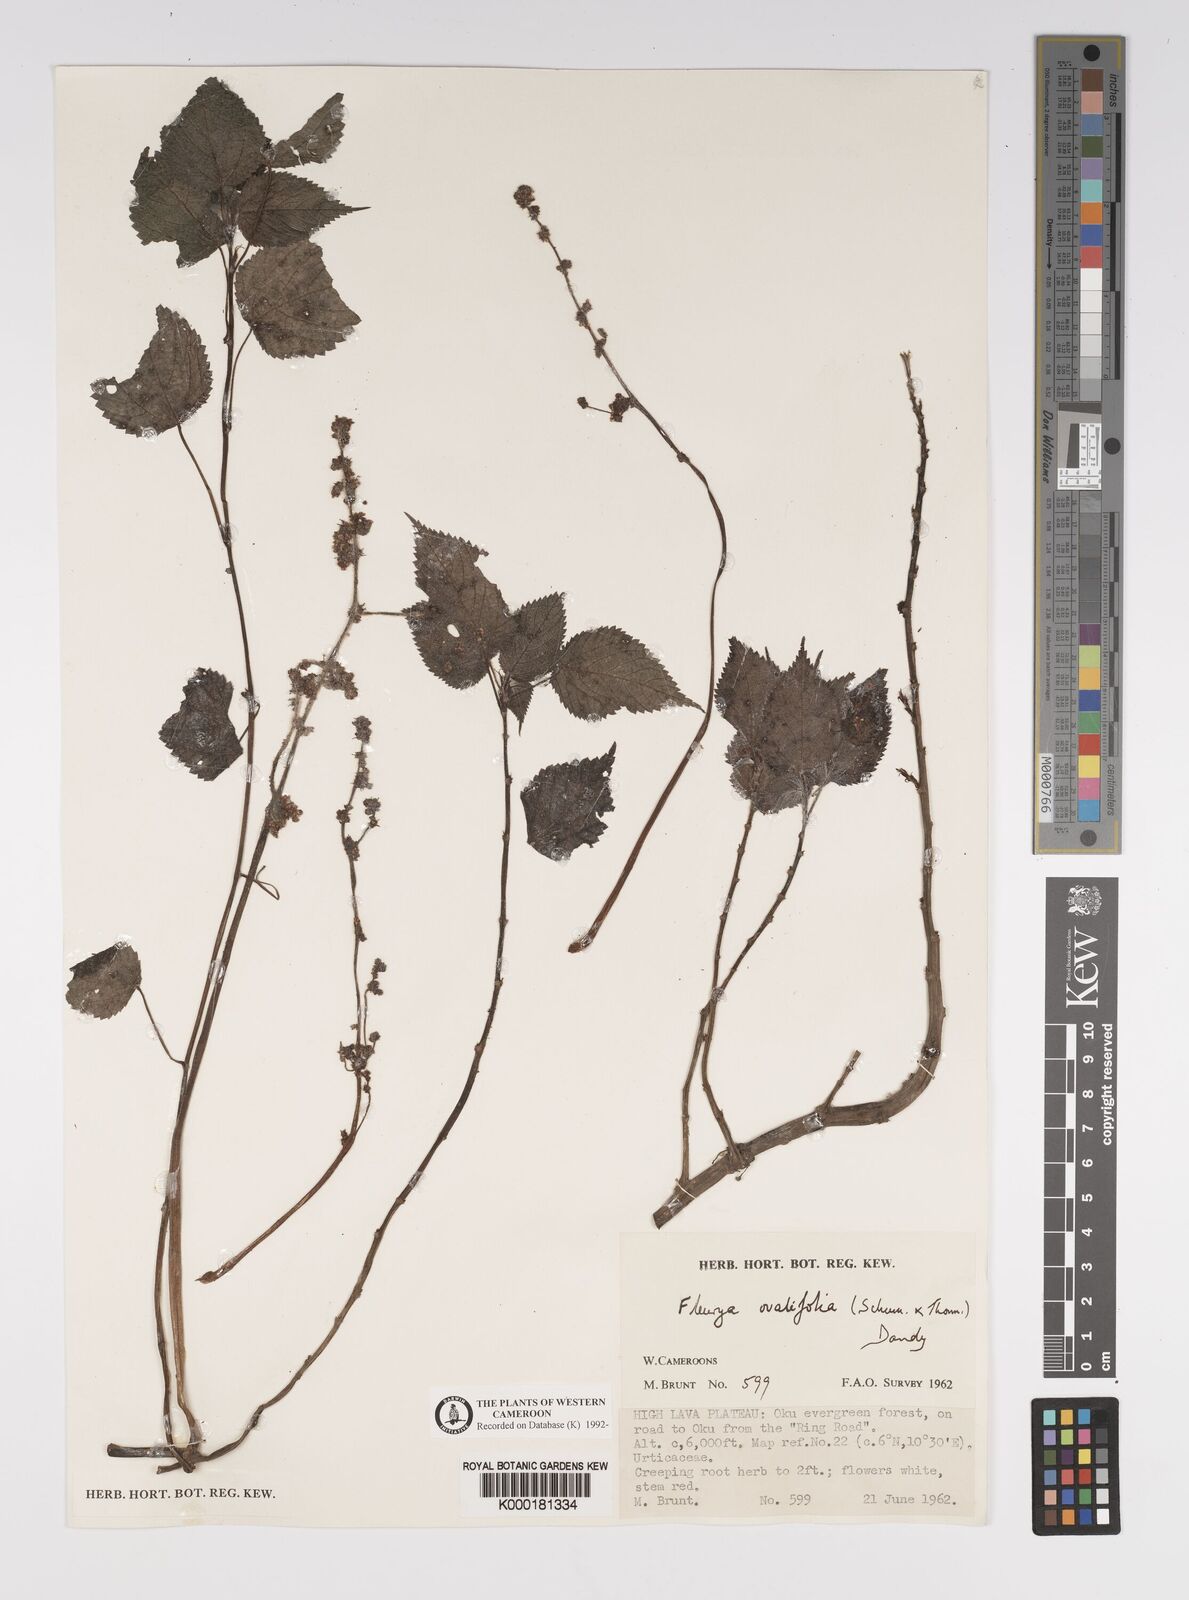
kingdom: Plantae
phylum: Tracheophyta
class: Magnoliopsida
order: Rosales
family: Urticaceae
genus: Laportea
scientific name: Laportea ovalifolia
